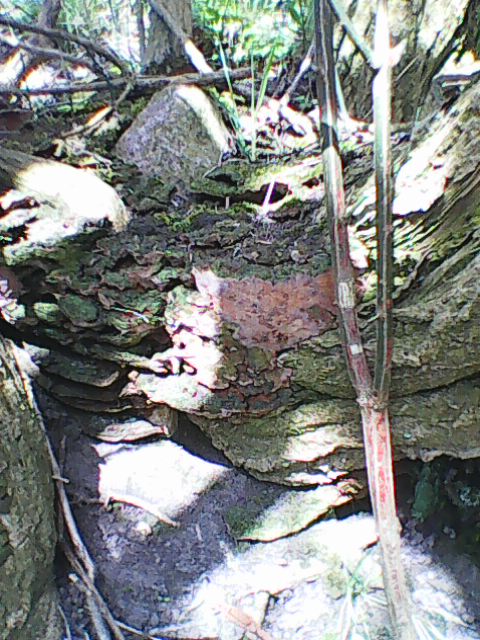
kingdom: Fungi
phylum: Basidiomycota
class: Agaricomycetes
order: Hymenochaetales
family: Hymenochaetaceae
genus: Phylloporia
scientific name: Phylloporia ribis
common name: ribs-ildporesvamp
